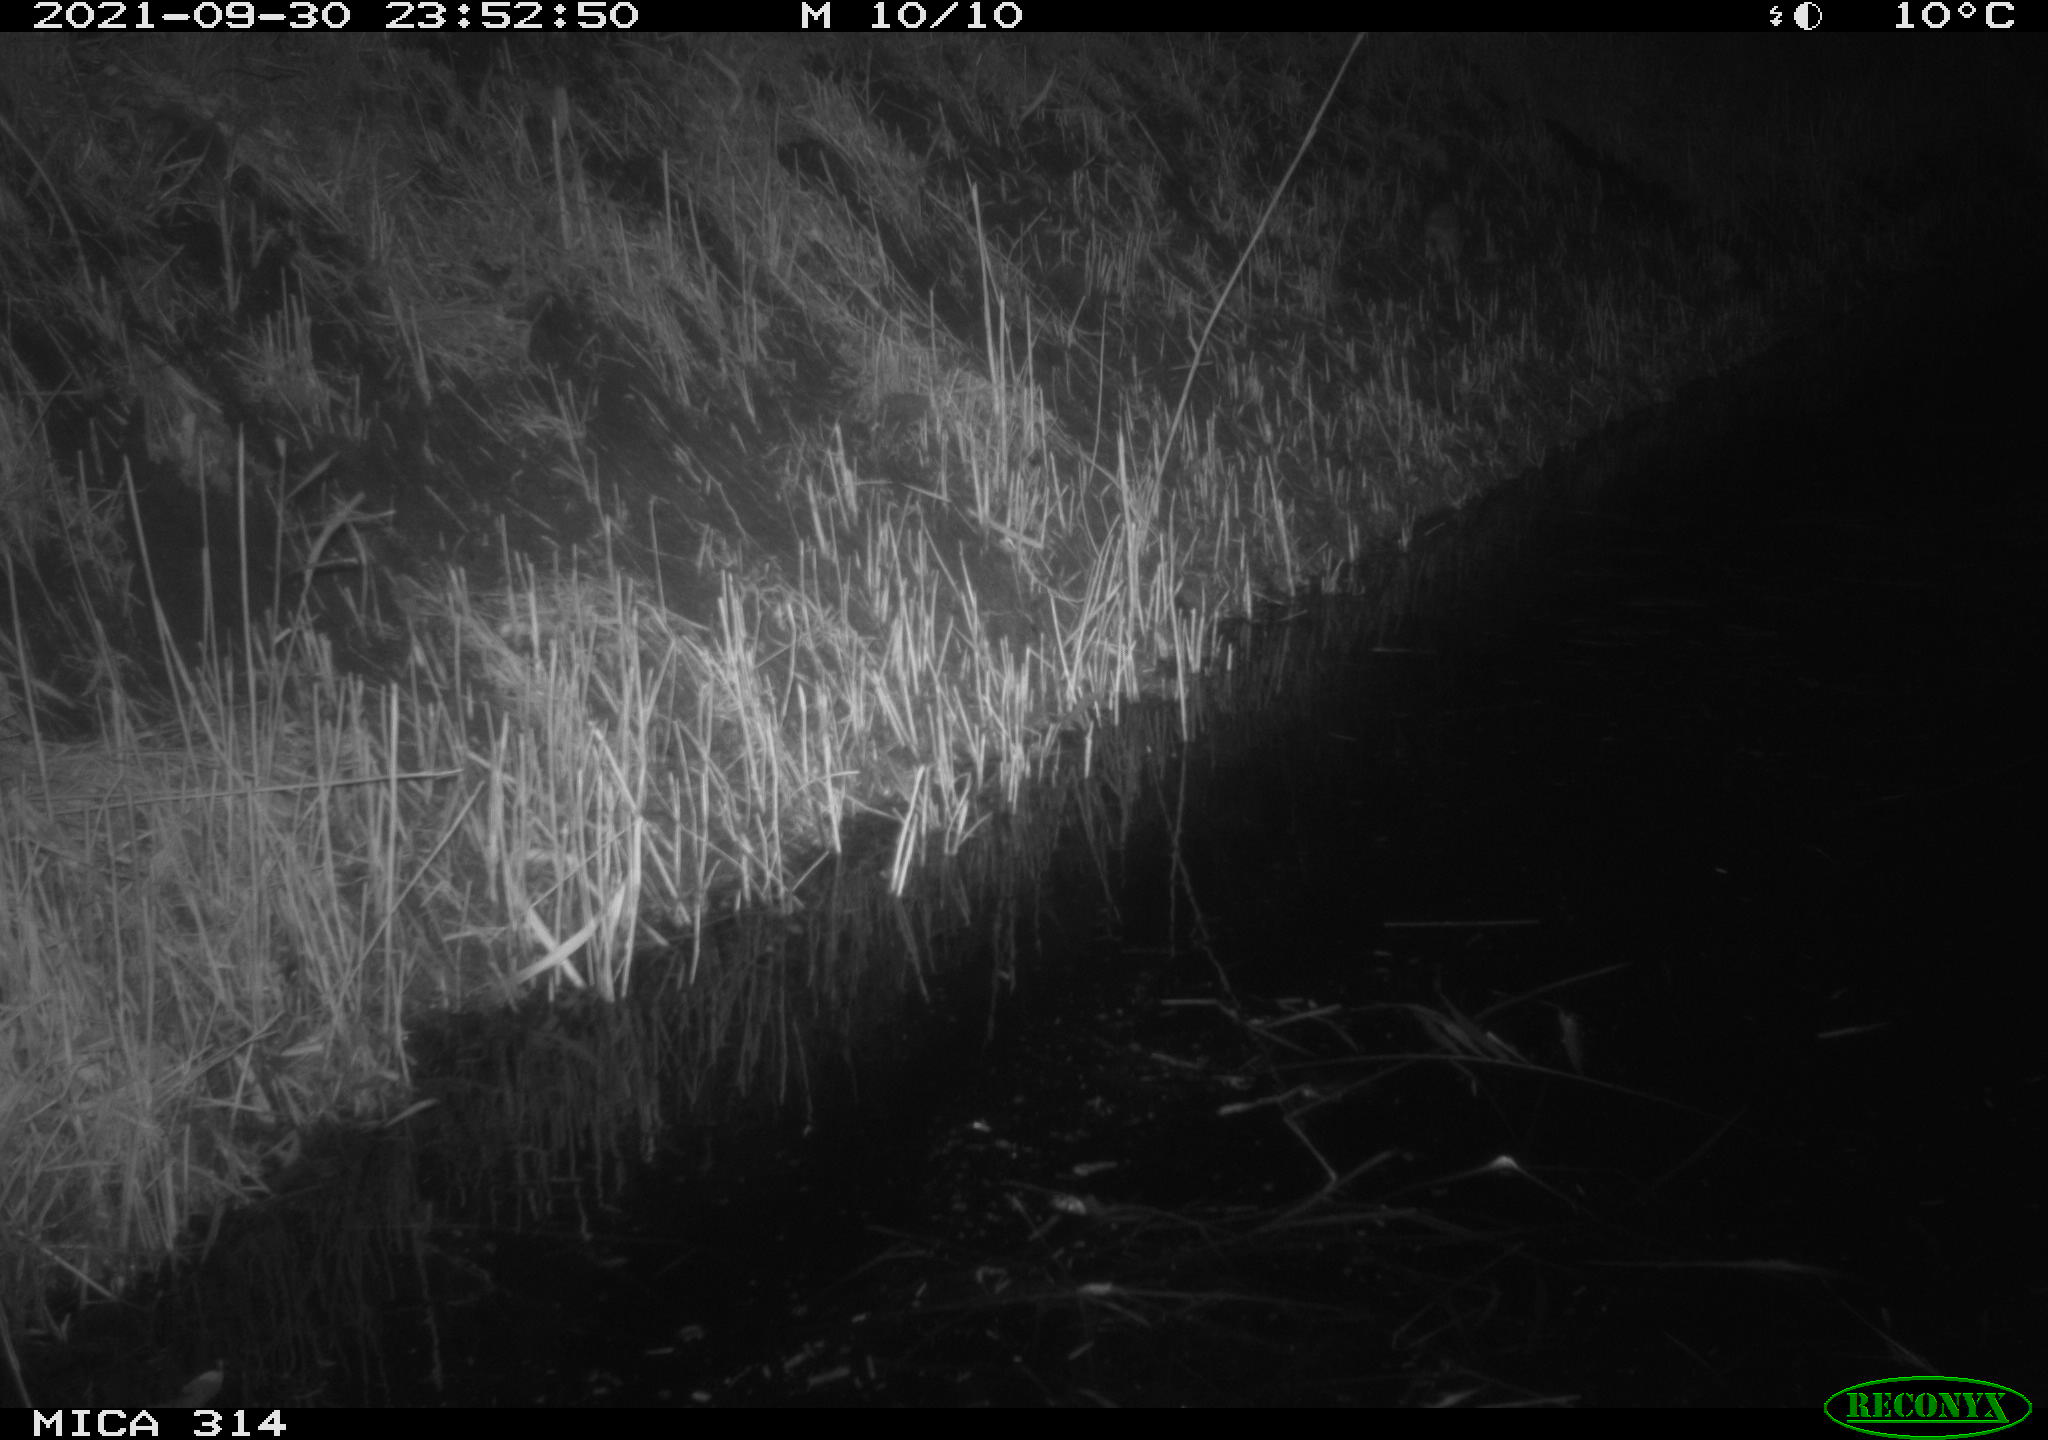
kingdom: Animalia
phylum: Chordata
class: Mammalia
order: Rodentia
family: Muridae
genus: Rattus
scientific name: Rattus norvegicus
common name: Brown rat
